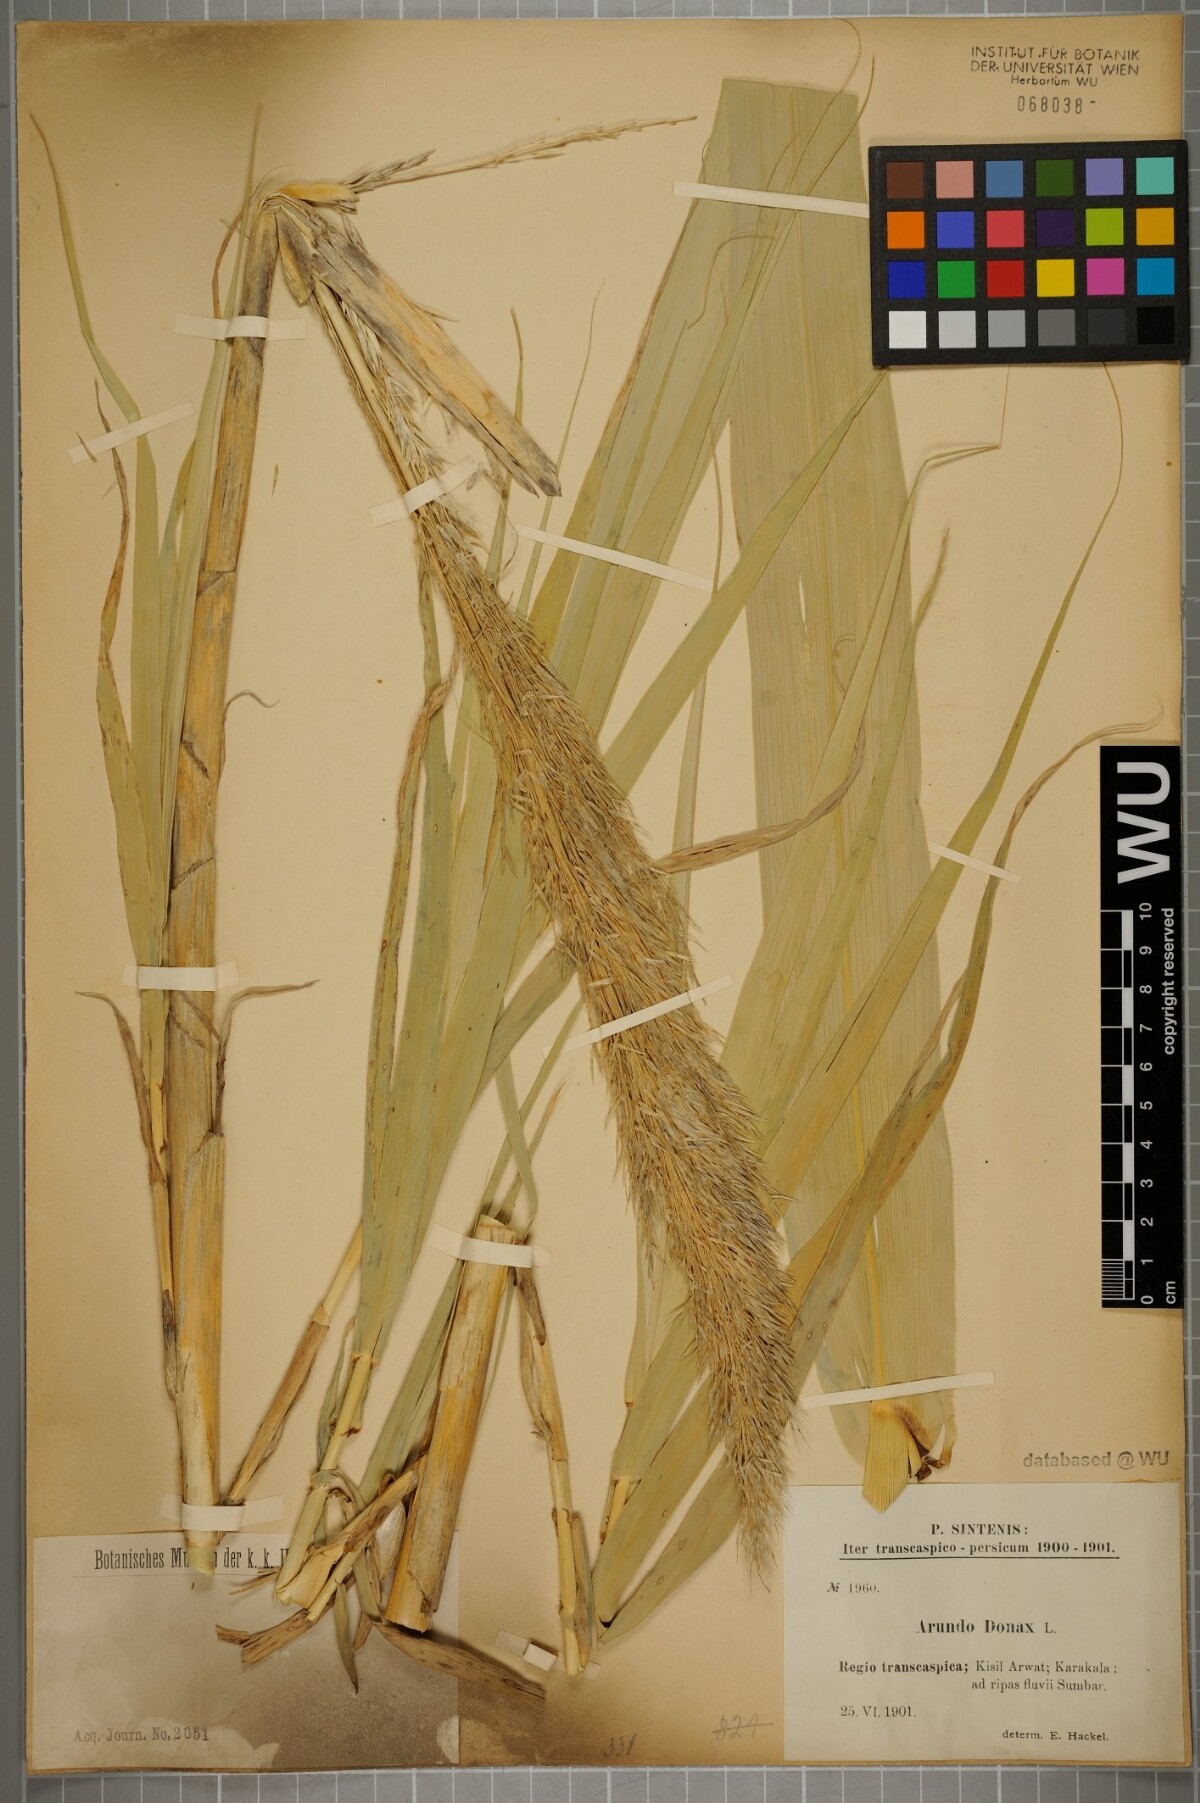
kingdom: Plantae
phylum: Tracheophyta
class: Liliopsida
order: Poales
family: Poaceae
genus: Arundo
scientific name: Arundo donax
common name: Giant reed
